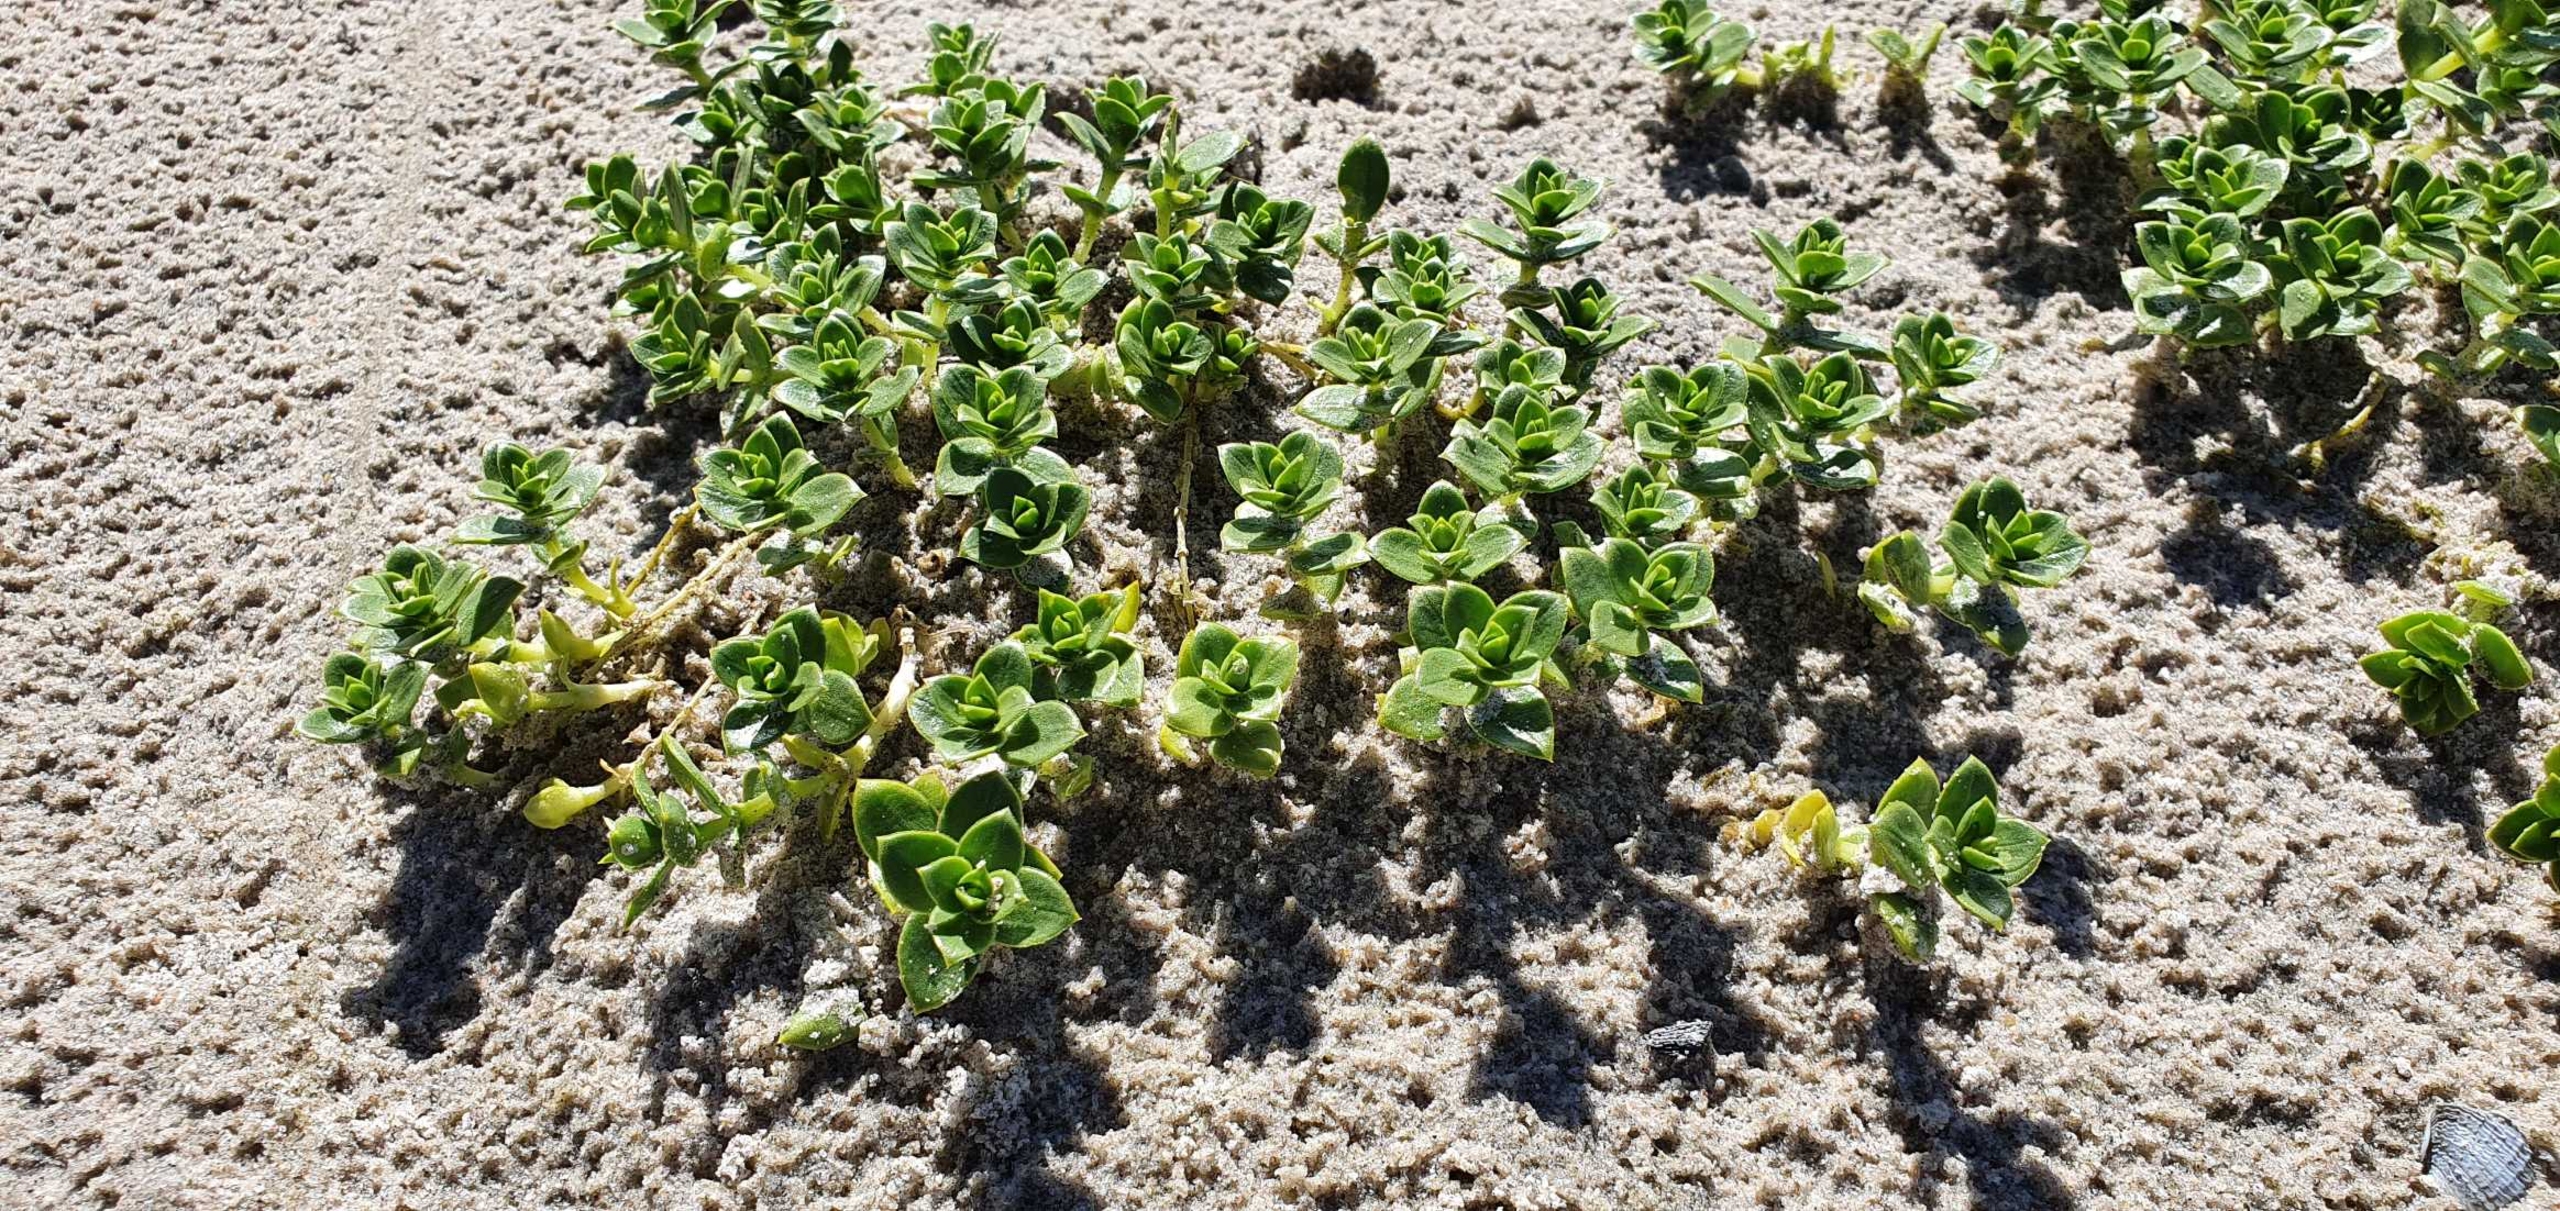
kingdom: Plantae
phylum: Tracheophyta
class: Magnoliopsida
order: Caryophyllales
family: Caryophyllaceae
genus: Honckenya
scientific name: Honckenya peploides
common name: Strandarve
